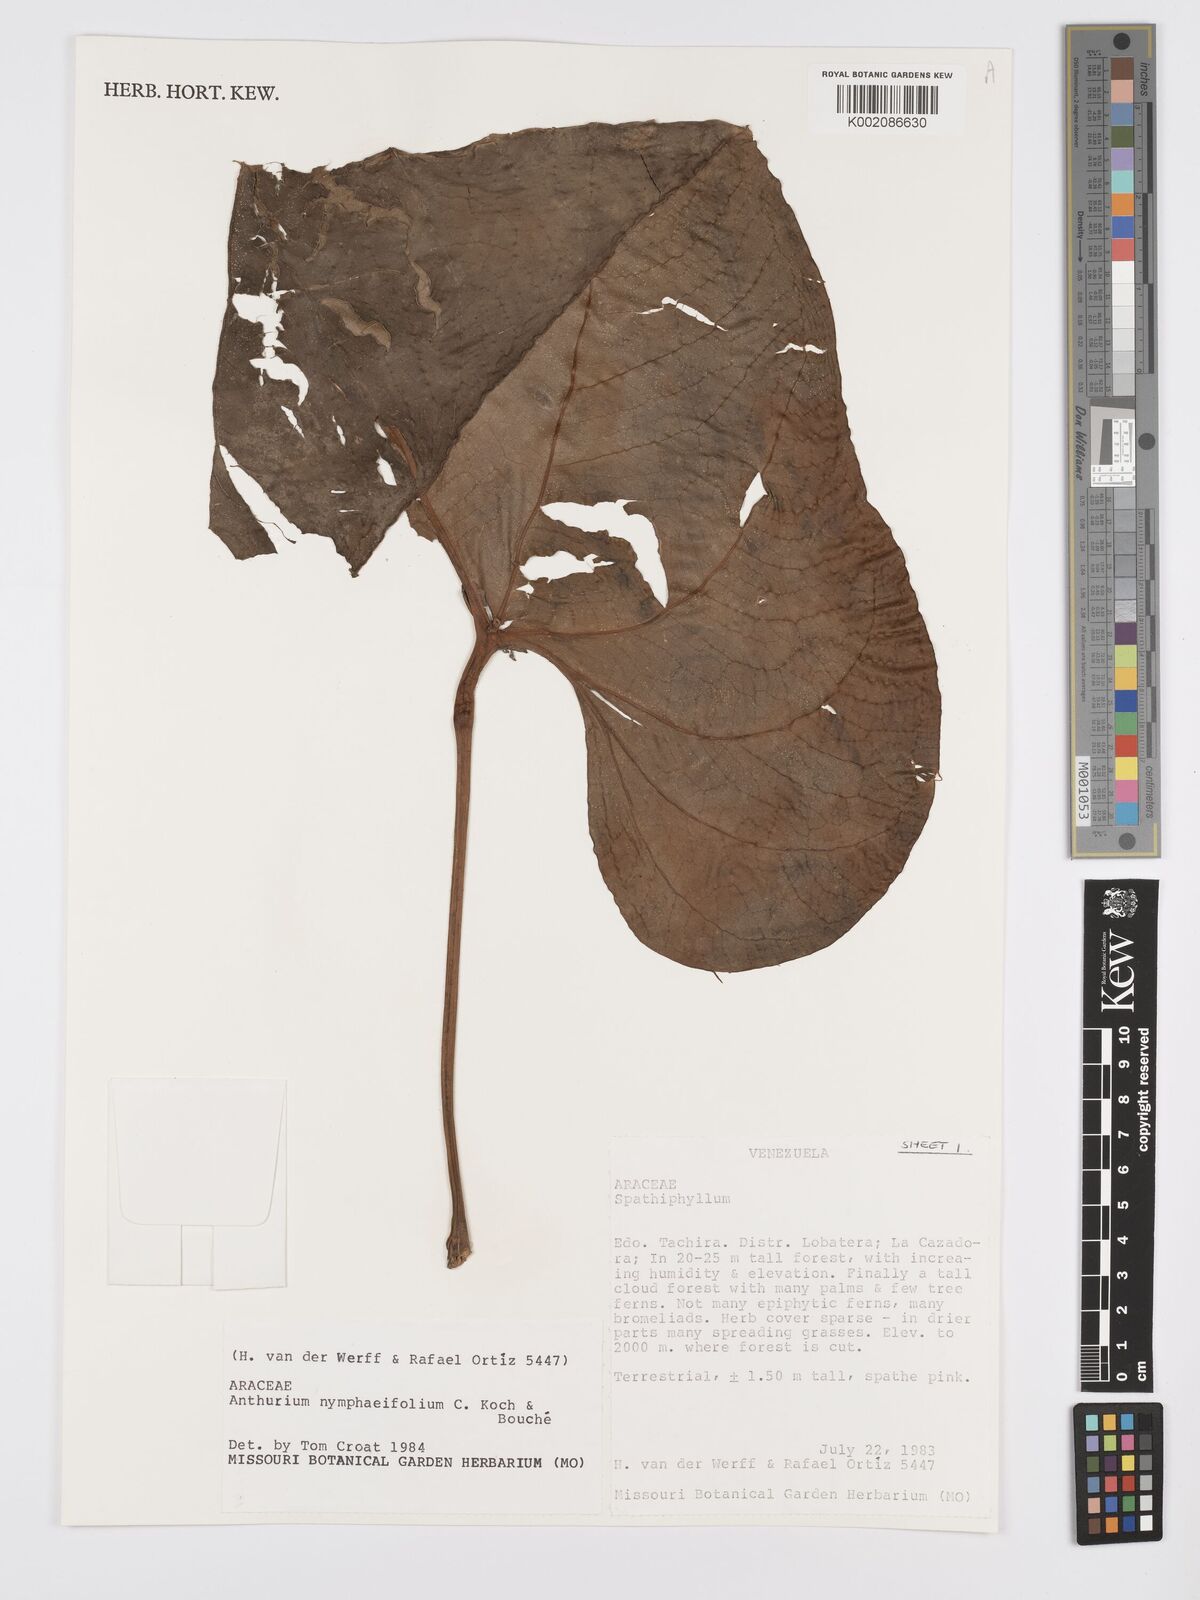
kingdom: Plantae
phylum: Tracheophyta
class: Liliopsida
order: Alismatales
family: Araceae
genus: Anthurium
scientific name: Anthurium nymphaeifolium
